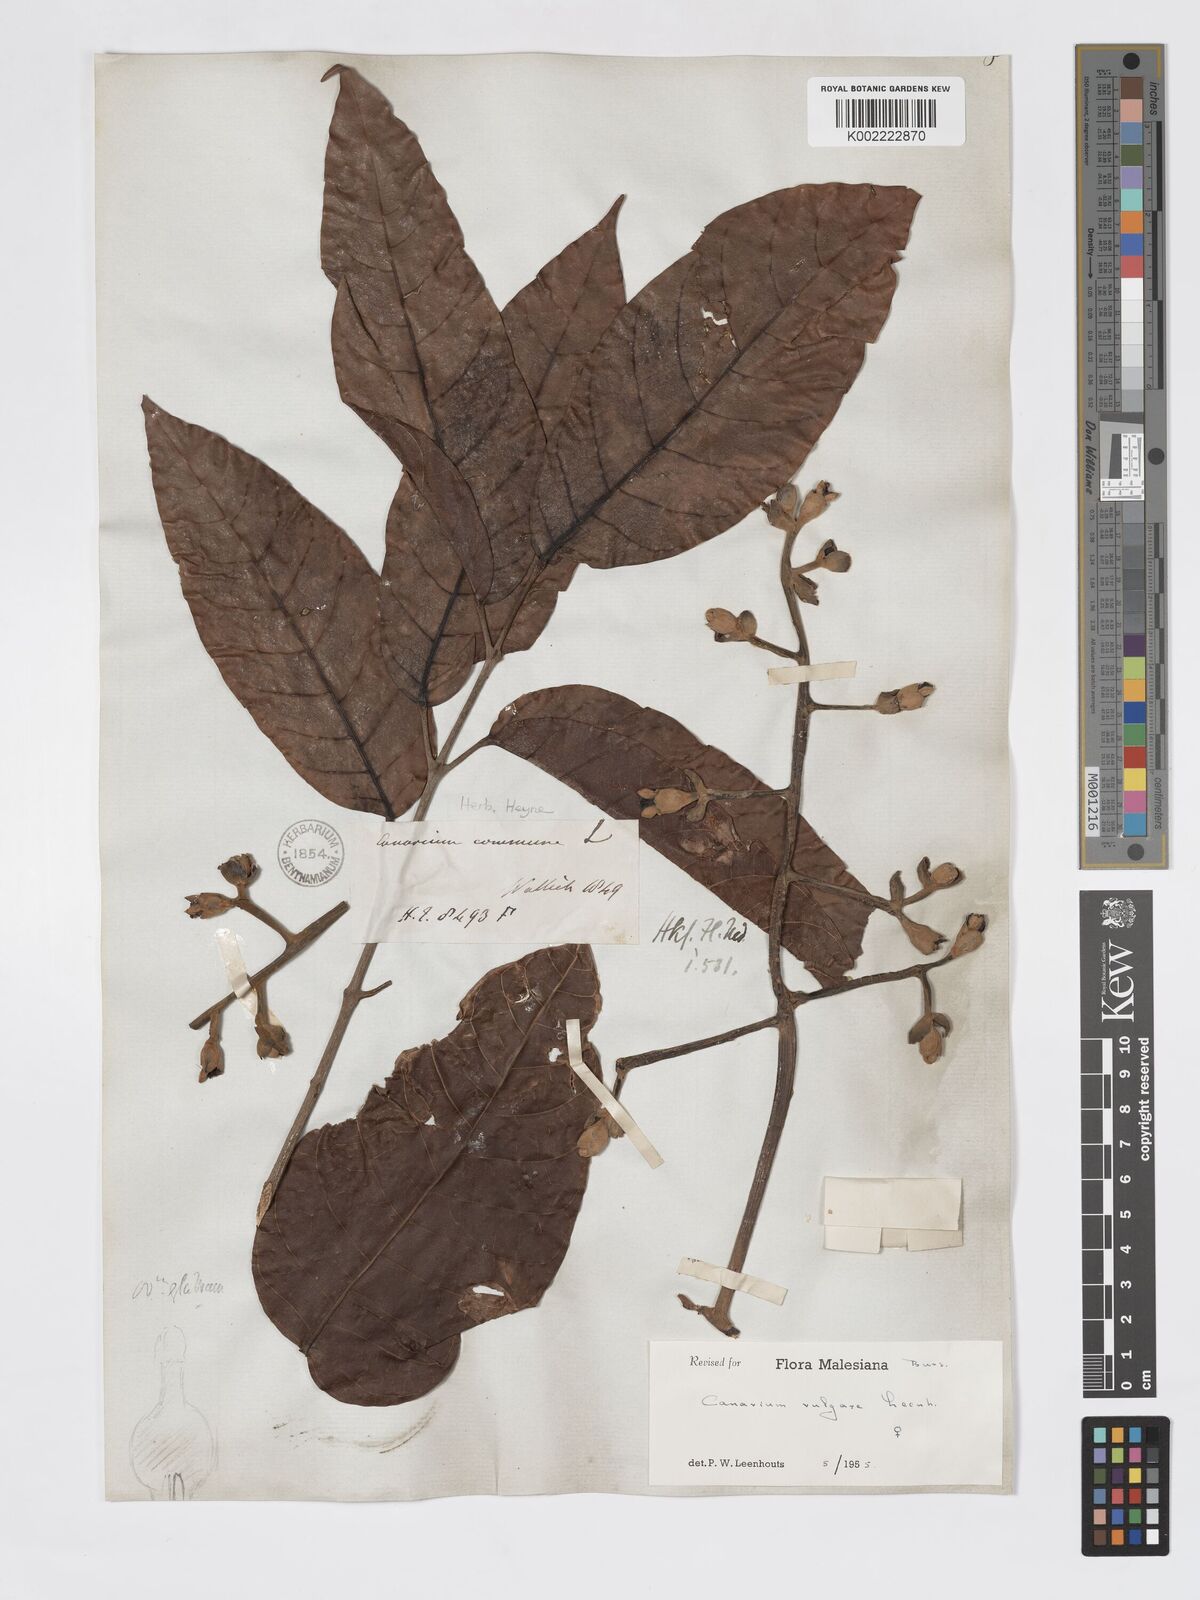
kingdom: Plantae
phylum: Tracheophyta
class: Magnoliopsida
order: Sapindales
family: Burseraceae
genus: Canarium
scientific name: Canarium vulgare
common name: Java almond
